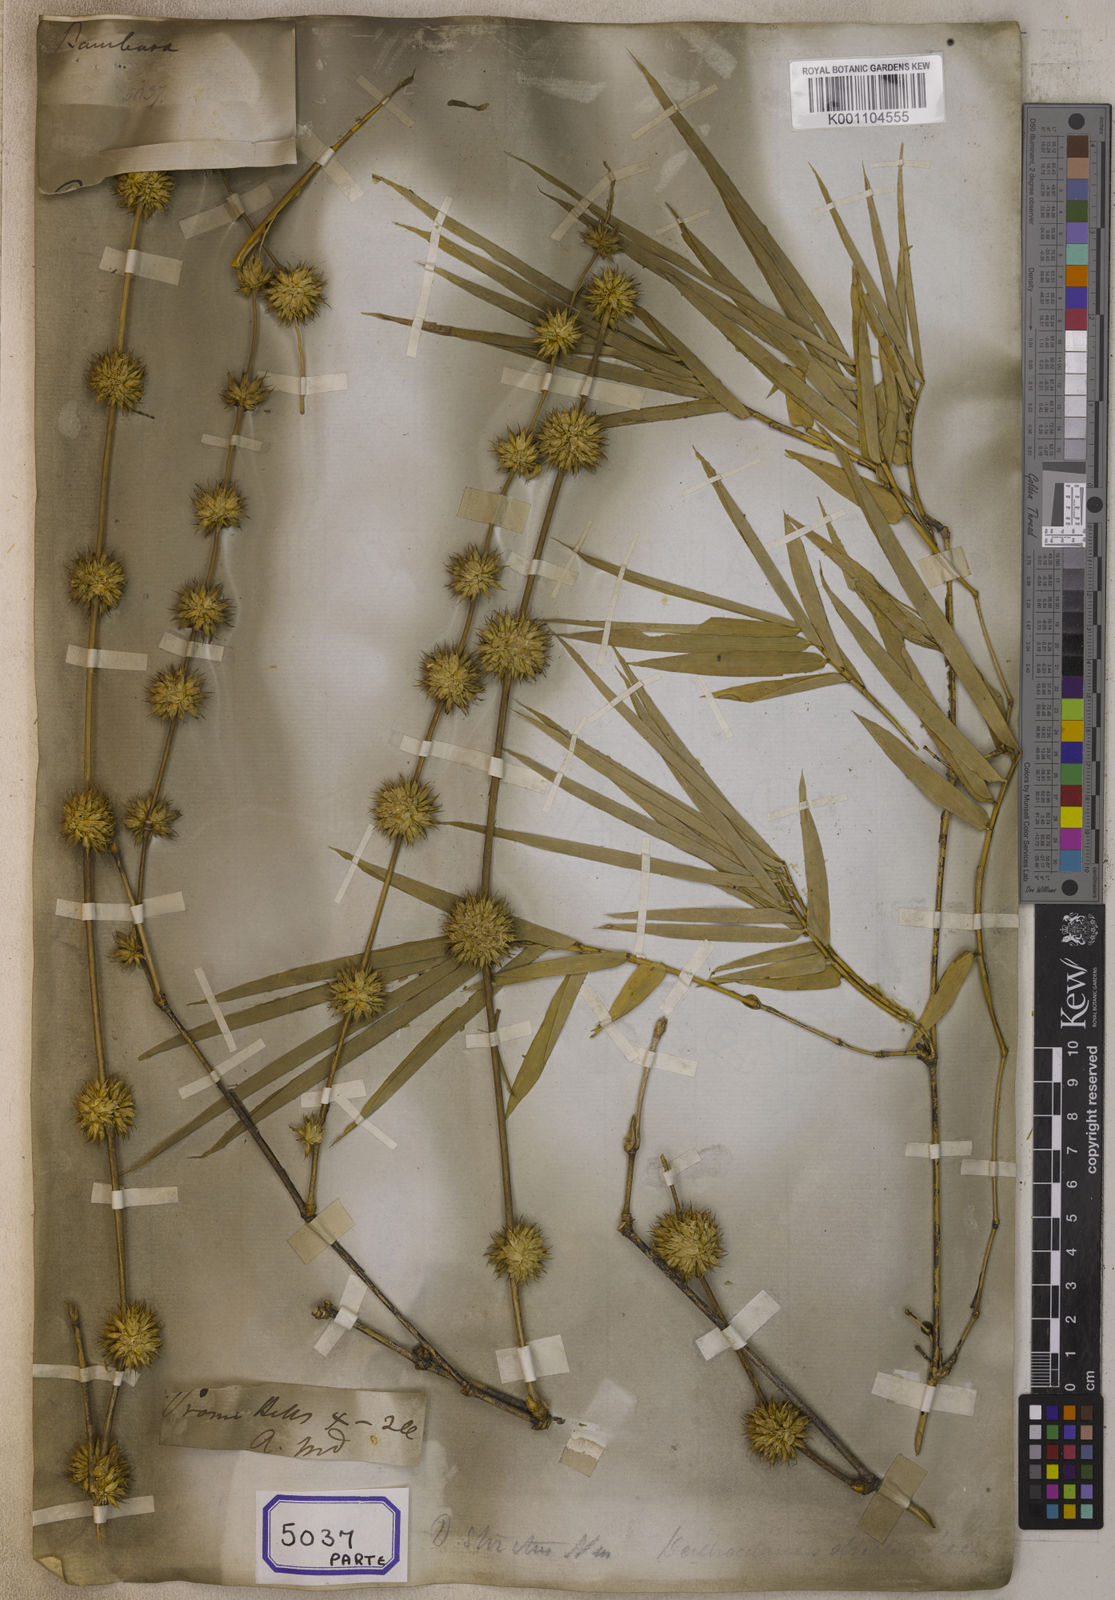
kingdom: Plantae
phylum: Tracheophyta
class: Liliopsida
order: Poales
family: Poaceae
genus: Bambusa
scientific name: Bambusa
